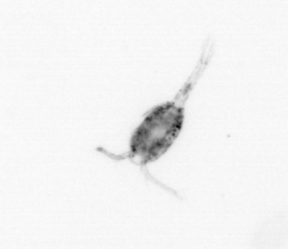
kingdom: Animalia
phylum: Arthropoda
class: Copepoda
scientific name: Copepoda
